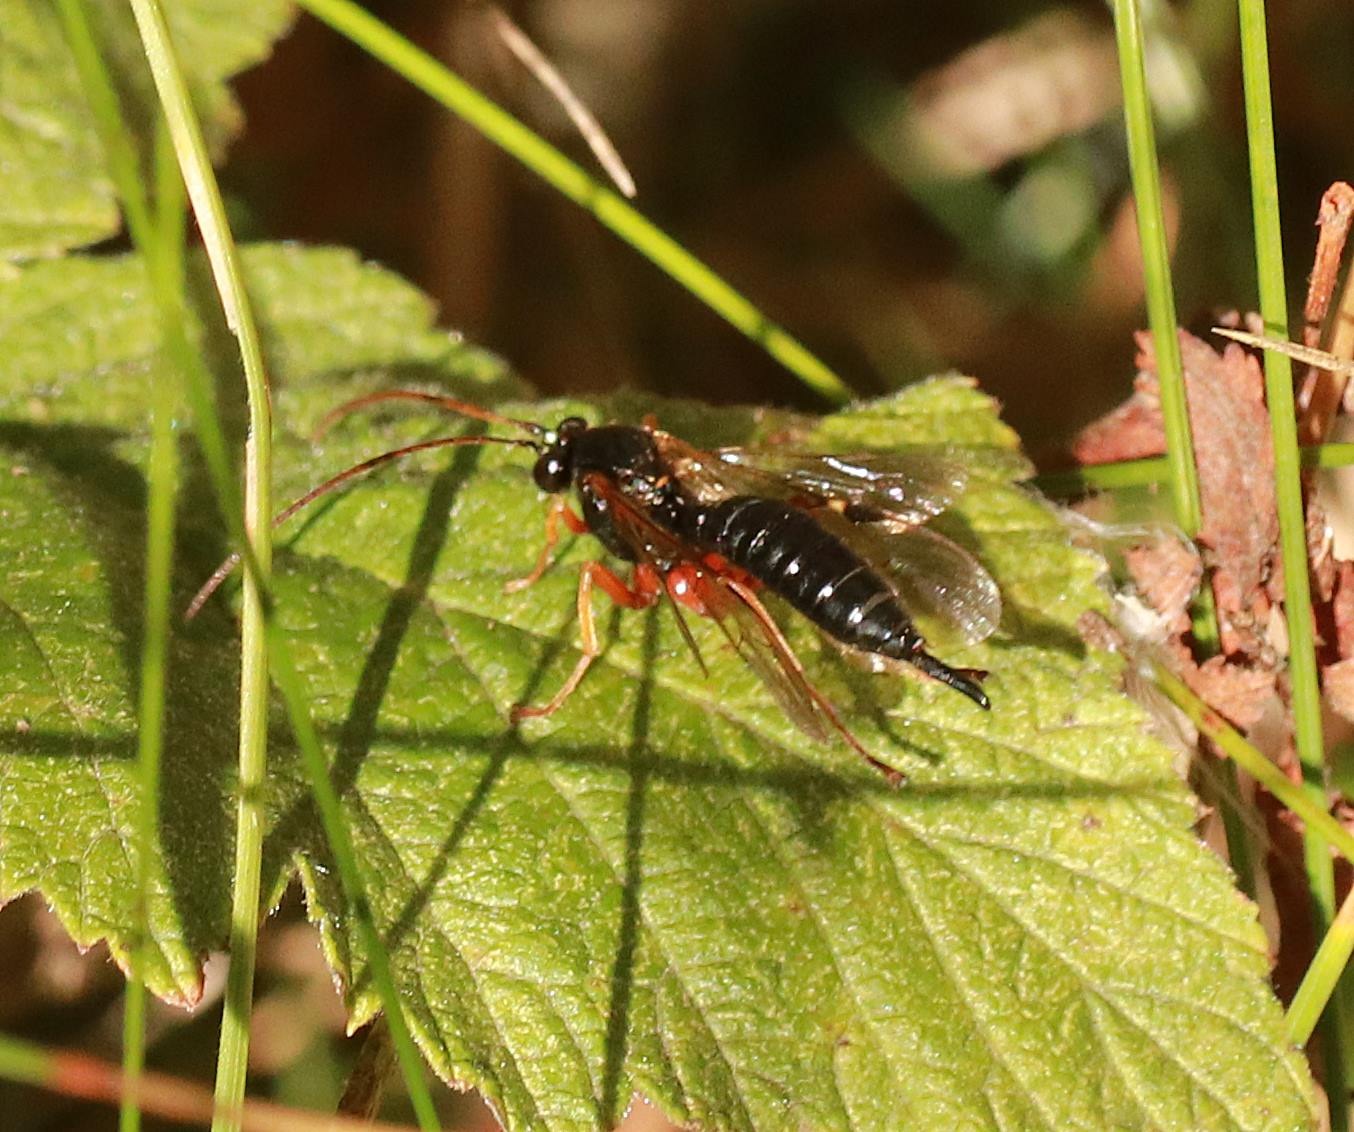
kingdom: Animalia
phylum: Arthropoda
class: Insecta
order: Hymenoptera
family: Ichneumonidae
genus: Apechthis
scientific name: Apechthis
